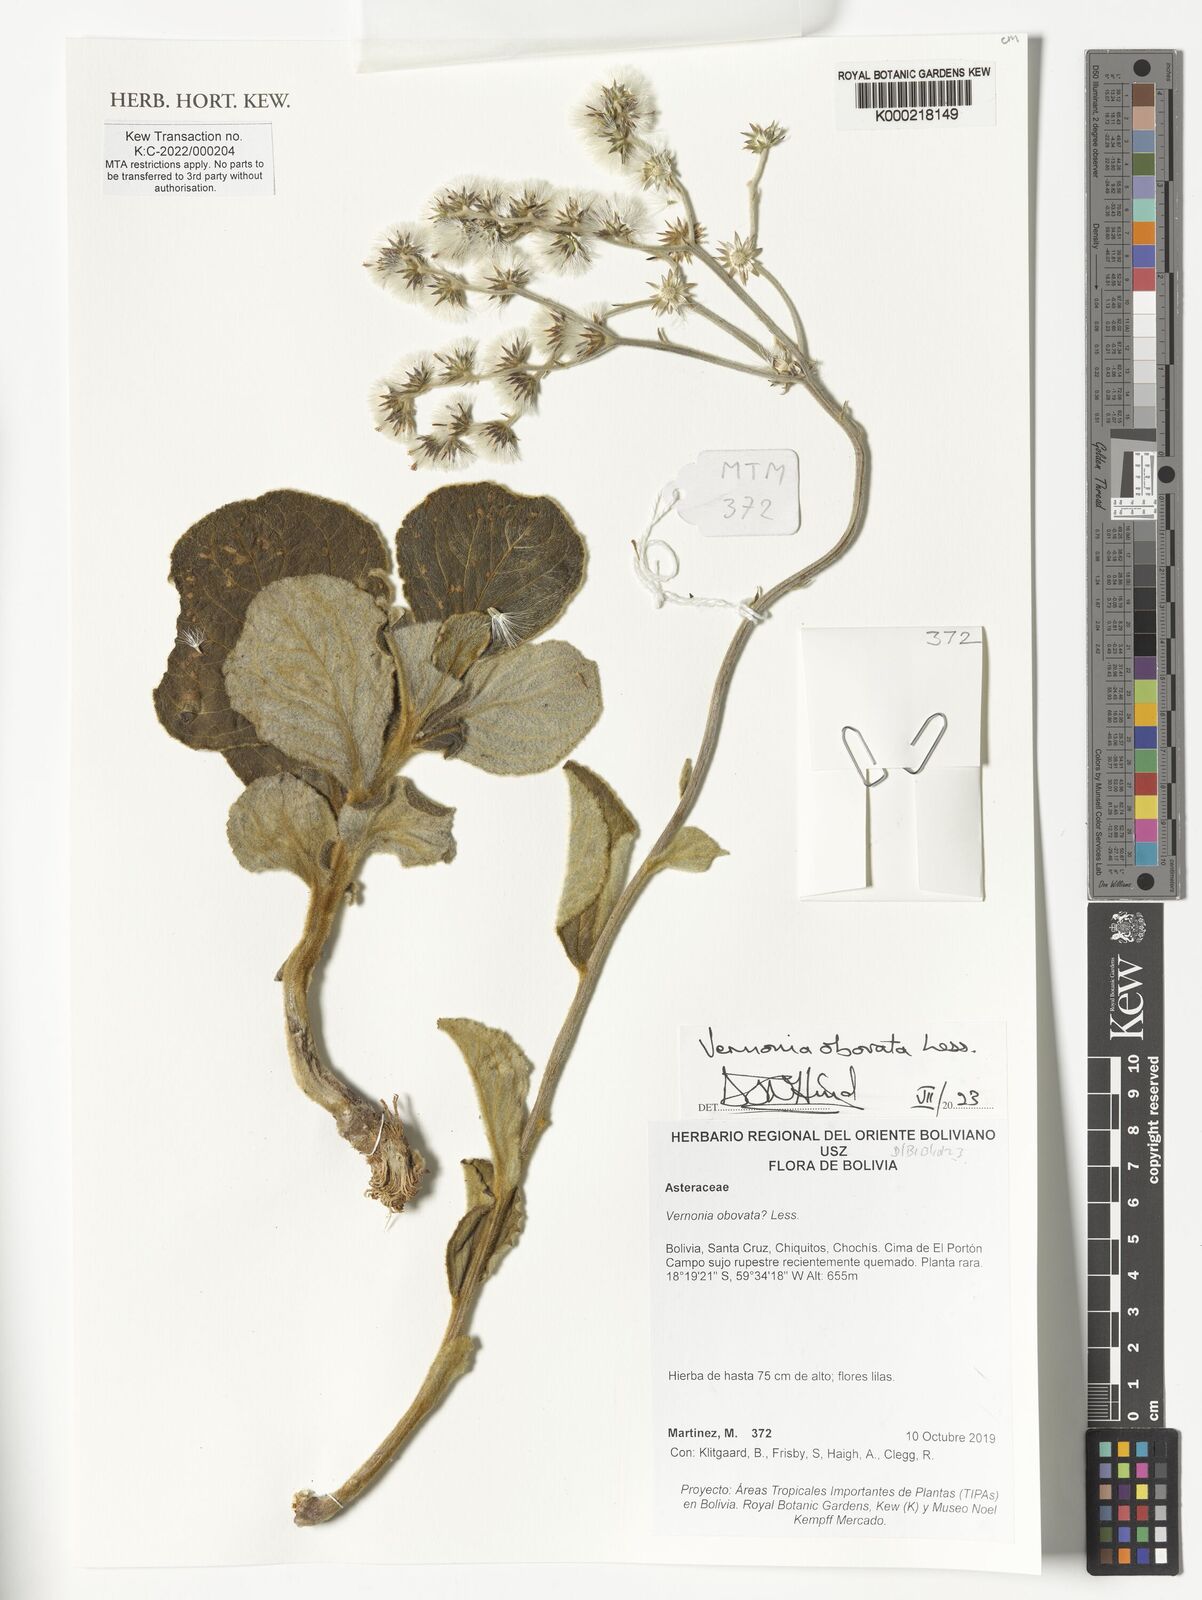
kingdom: Plantae
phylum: Tracheophyta
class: Magnoliopsida
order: Asterales
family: Asteraceae
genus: Chrysolaena
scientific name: Chrysolaena obovata
